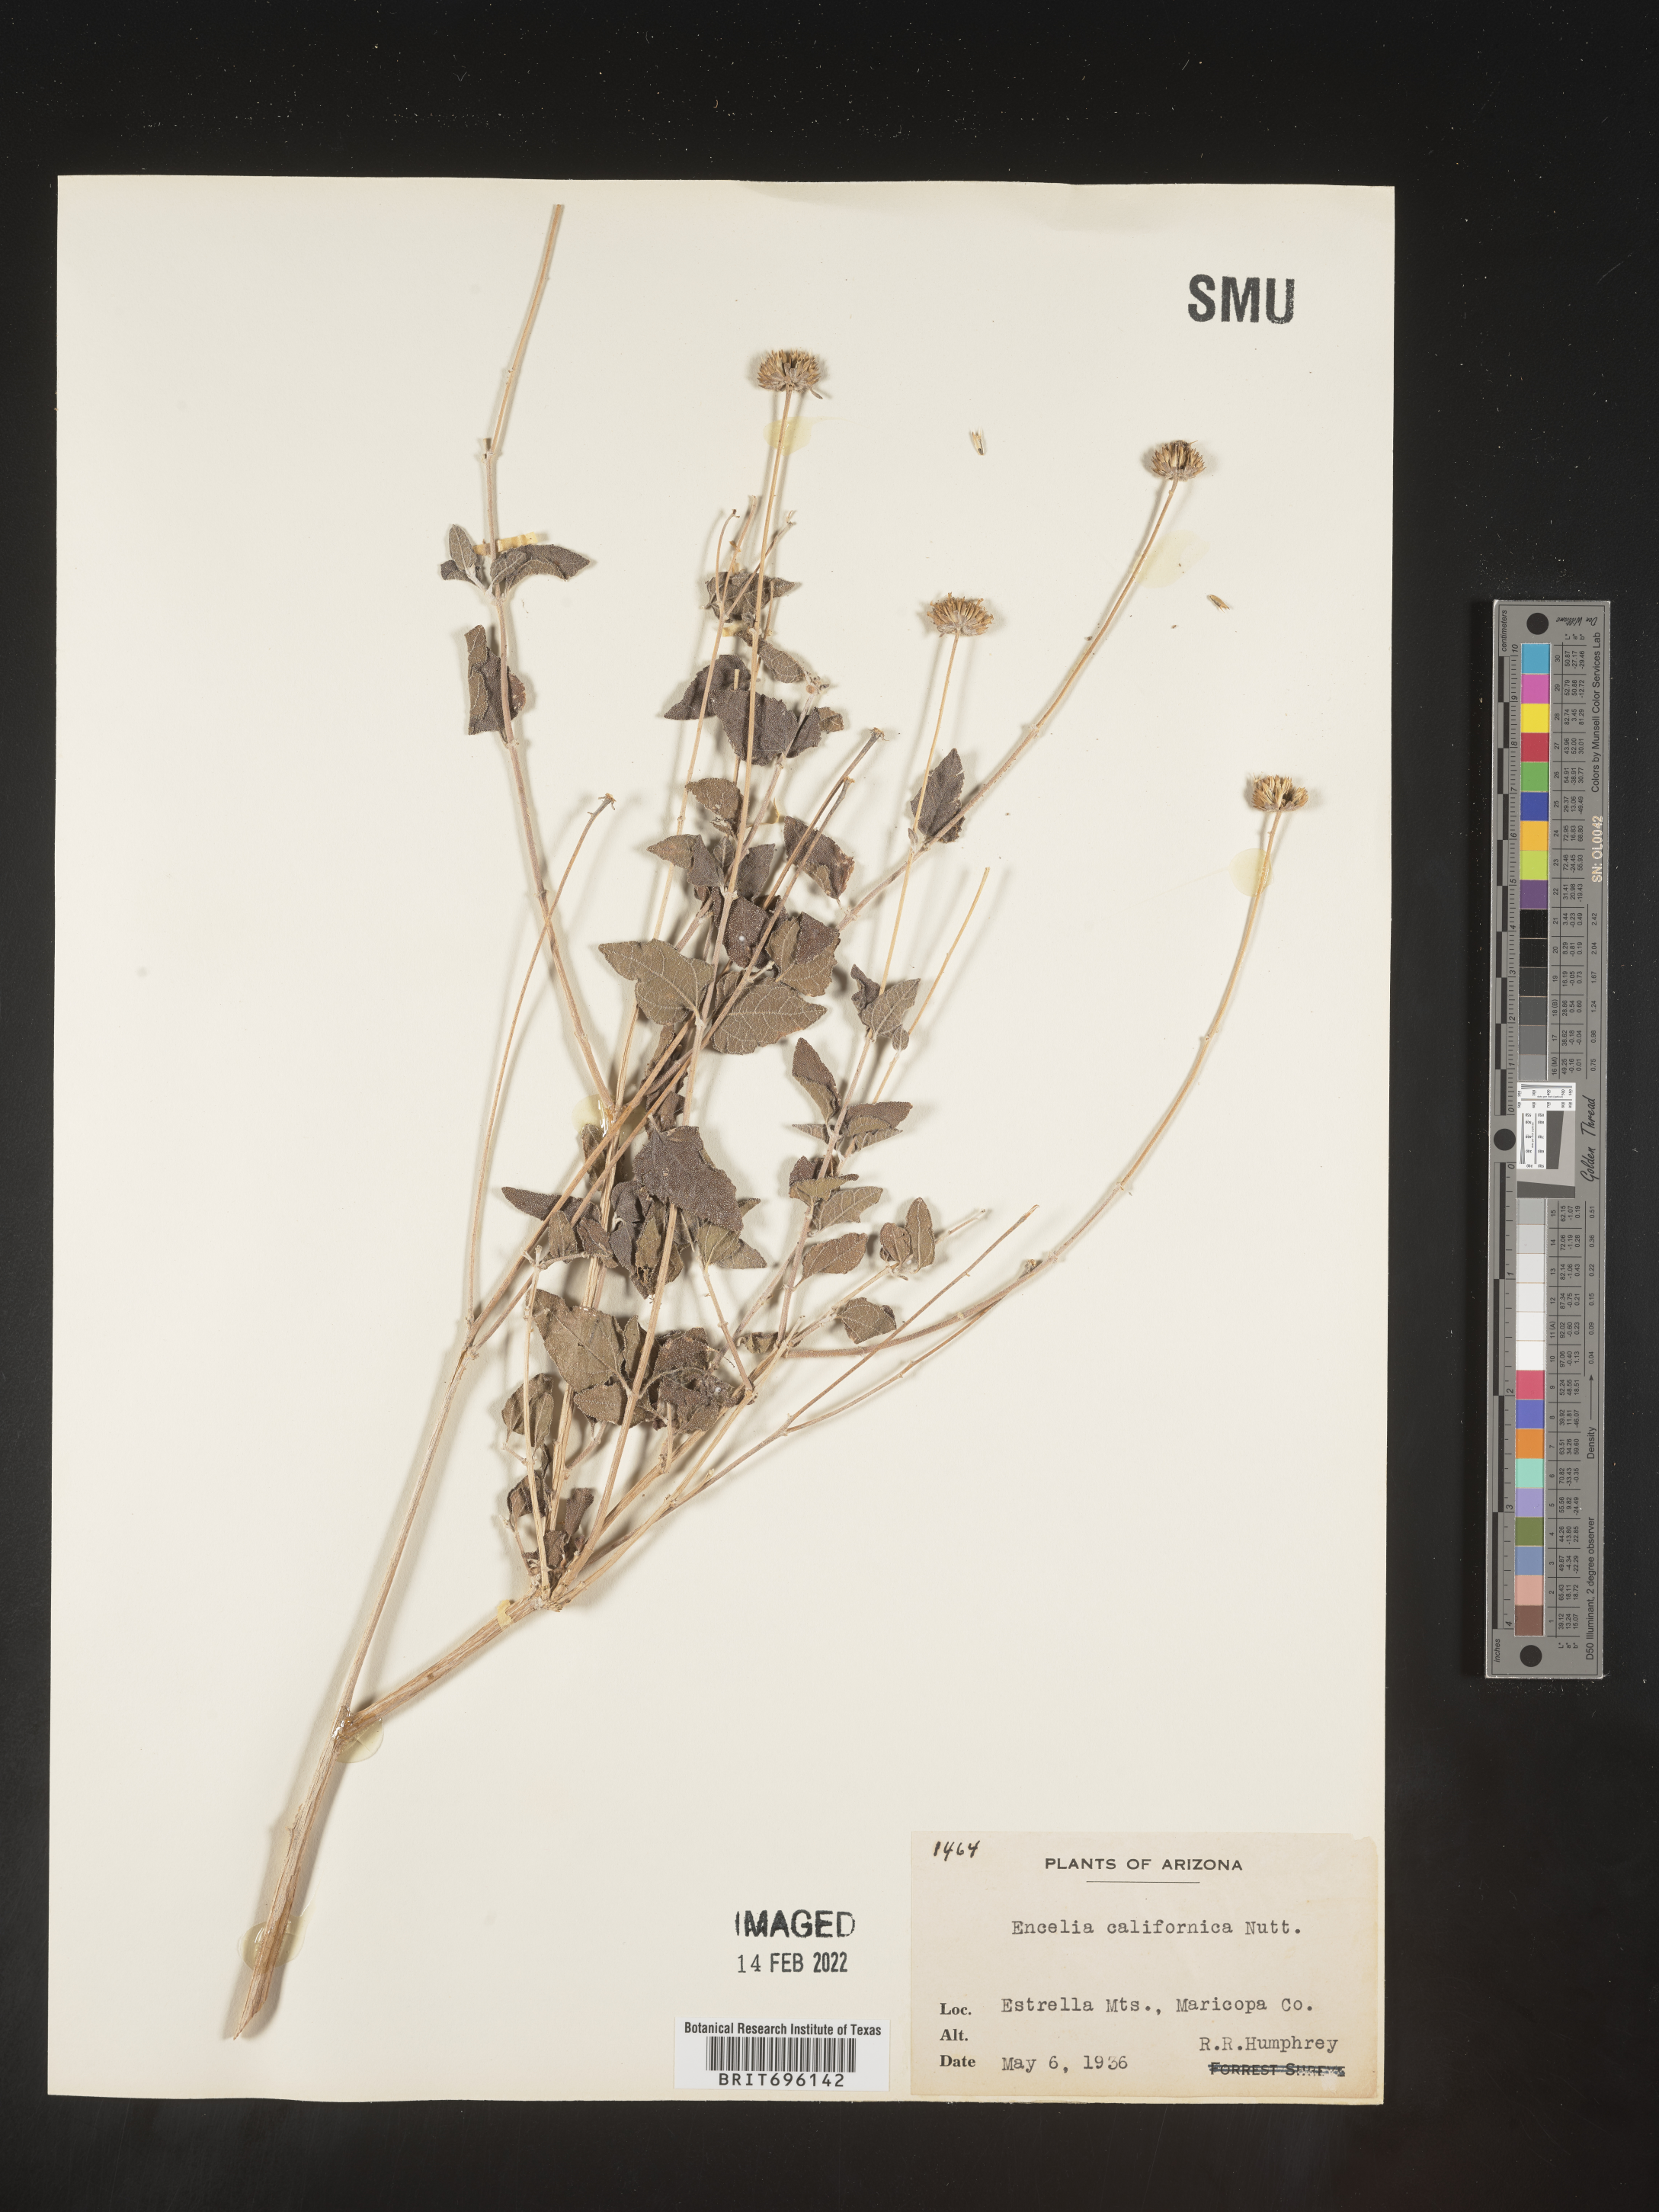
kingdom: Plantae
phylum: Tracheophyta
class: Magnoliopsida
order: Asterales
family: Asteraceae
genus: Encelia
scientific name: Encelia californica
